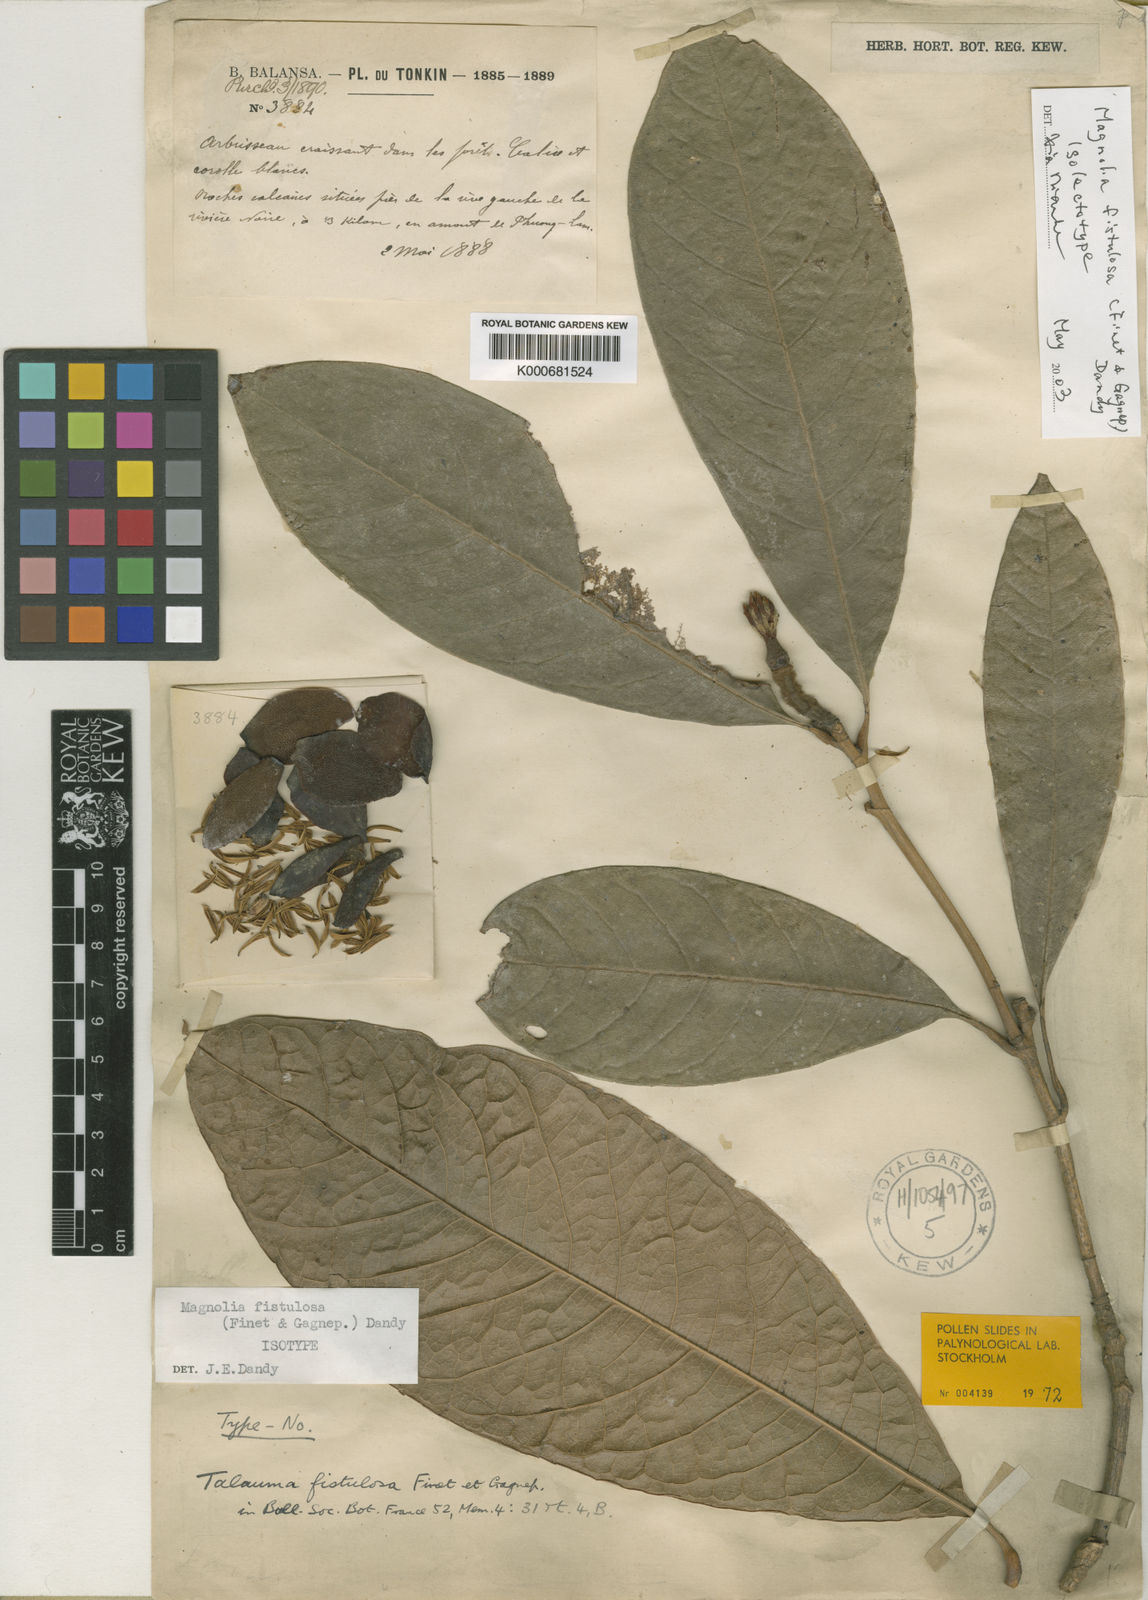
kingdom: Plantae
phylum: Tracheophyta
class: Magnoliopsida
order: Magnoliales
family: Magnoliaceae
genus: Magnolia
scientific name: Magnolia championii
